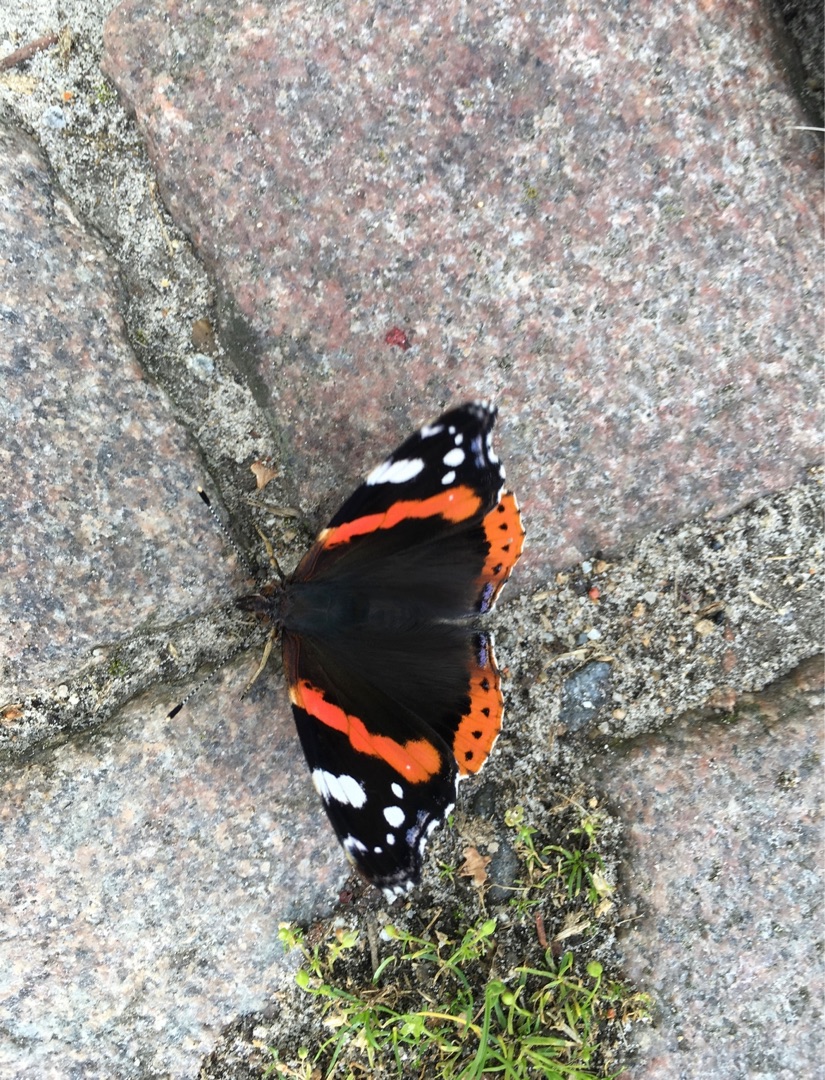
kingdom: Animalia
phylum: Arthropoda
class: Insecta
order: Lepidoptera
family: Nymphalidae
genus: Vanessa
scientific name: Vanessa atalanta
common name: Admiral
